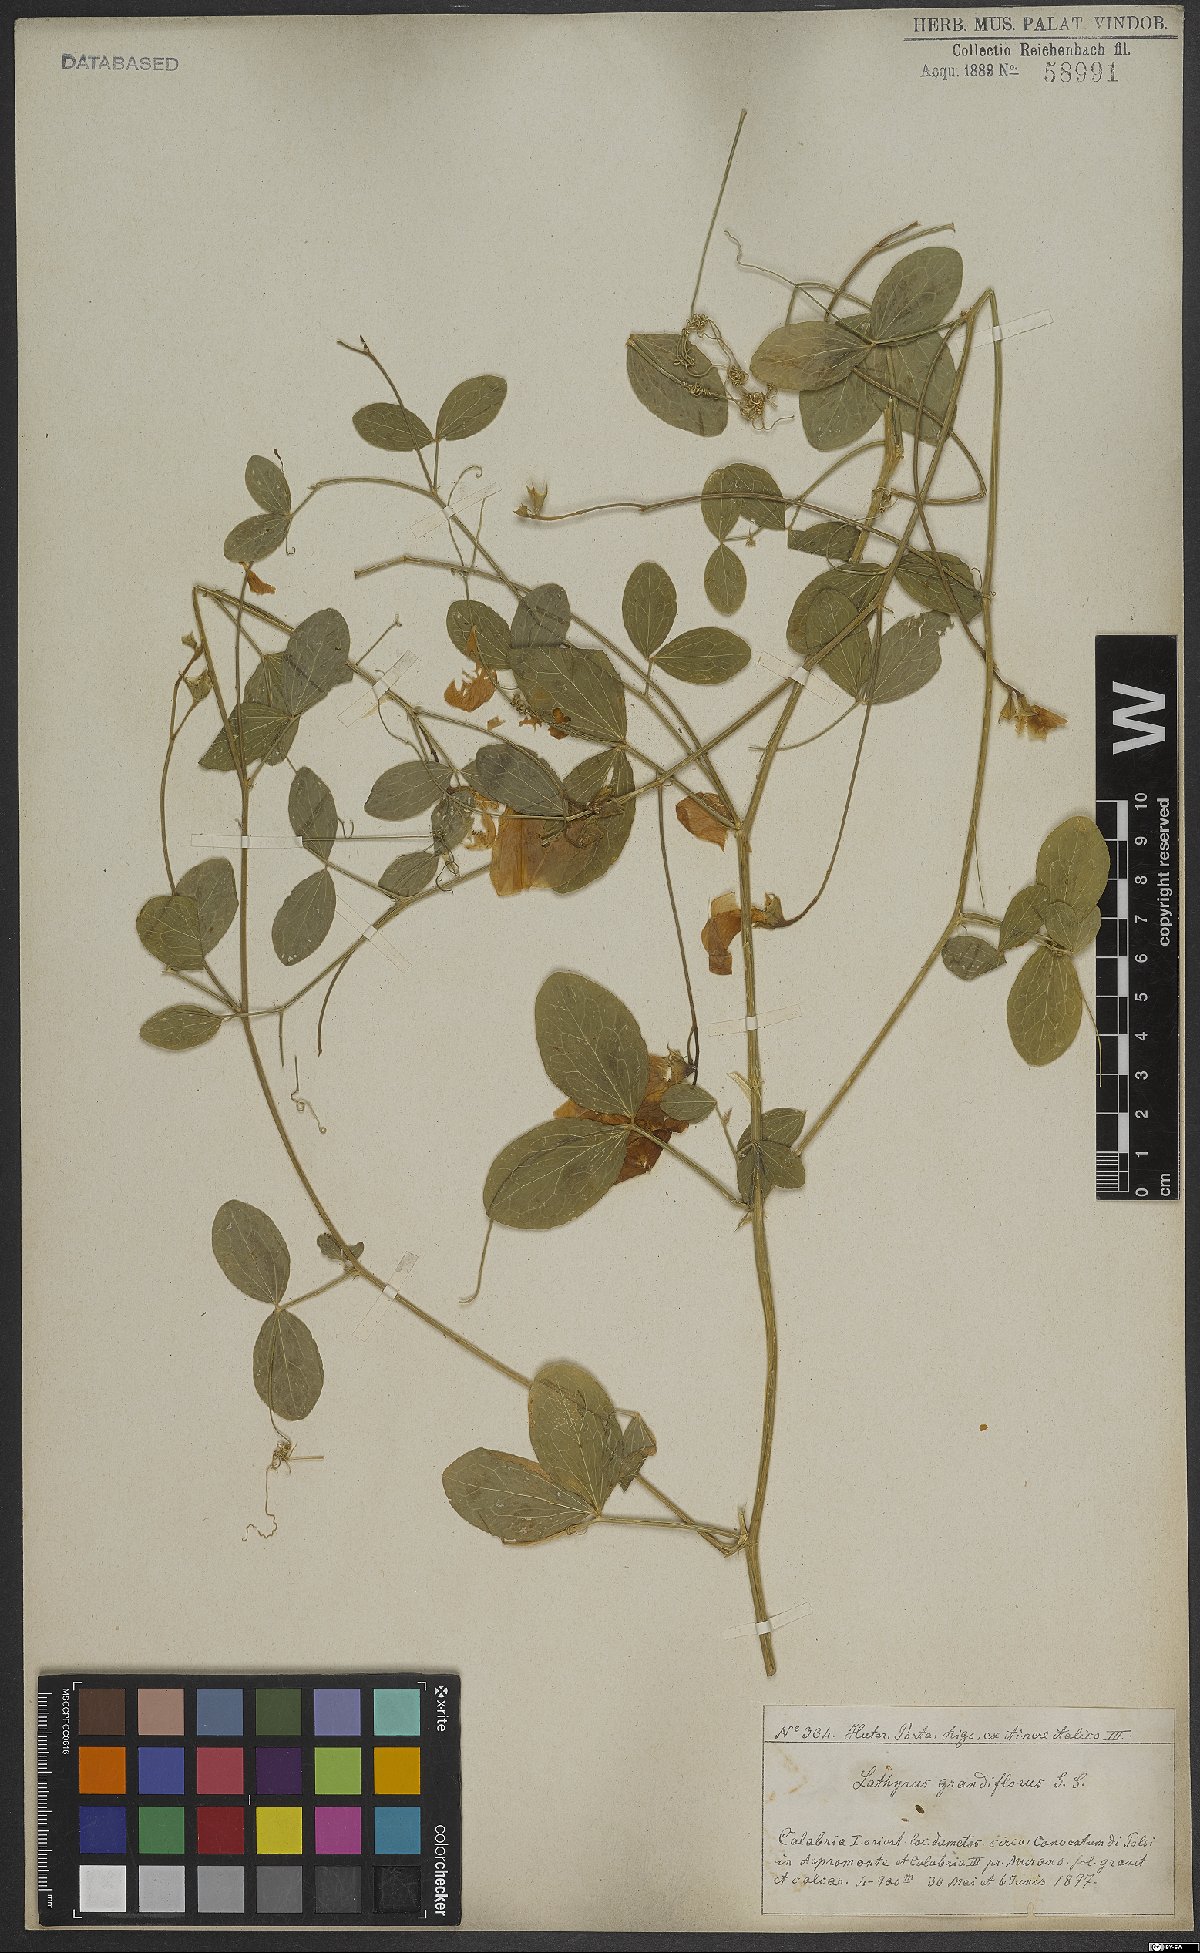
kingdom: Plantae
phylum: Tracheophyta
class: Magnoliopsida
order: Fabales
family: Fabaceae
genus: Lathyrus
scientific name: Lathyrus grandiflorus
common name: Two-flowered everlasting-pea
